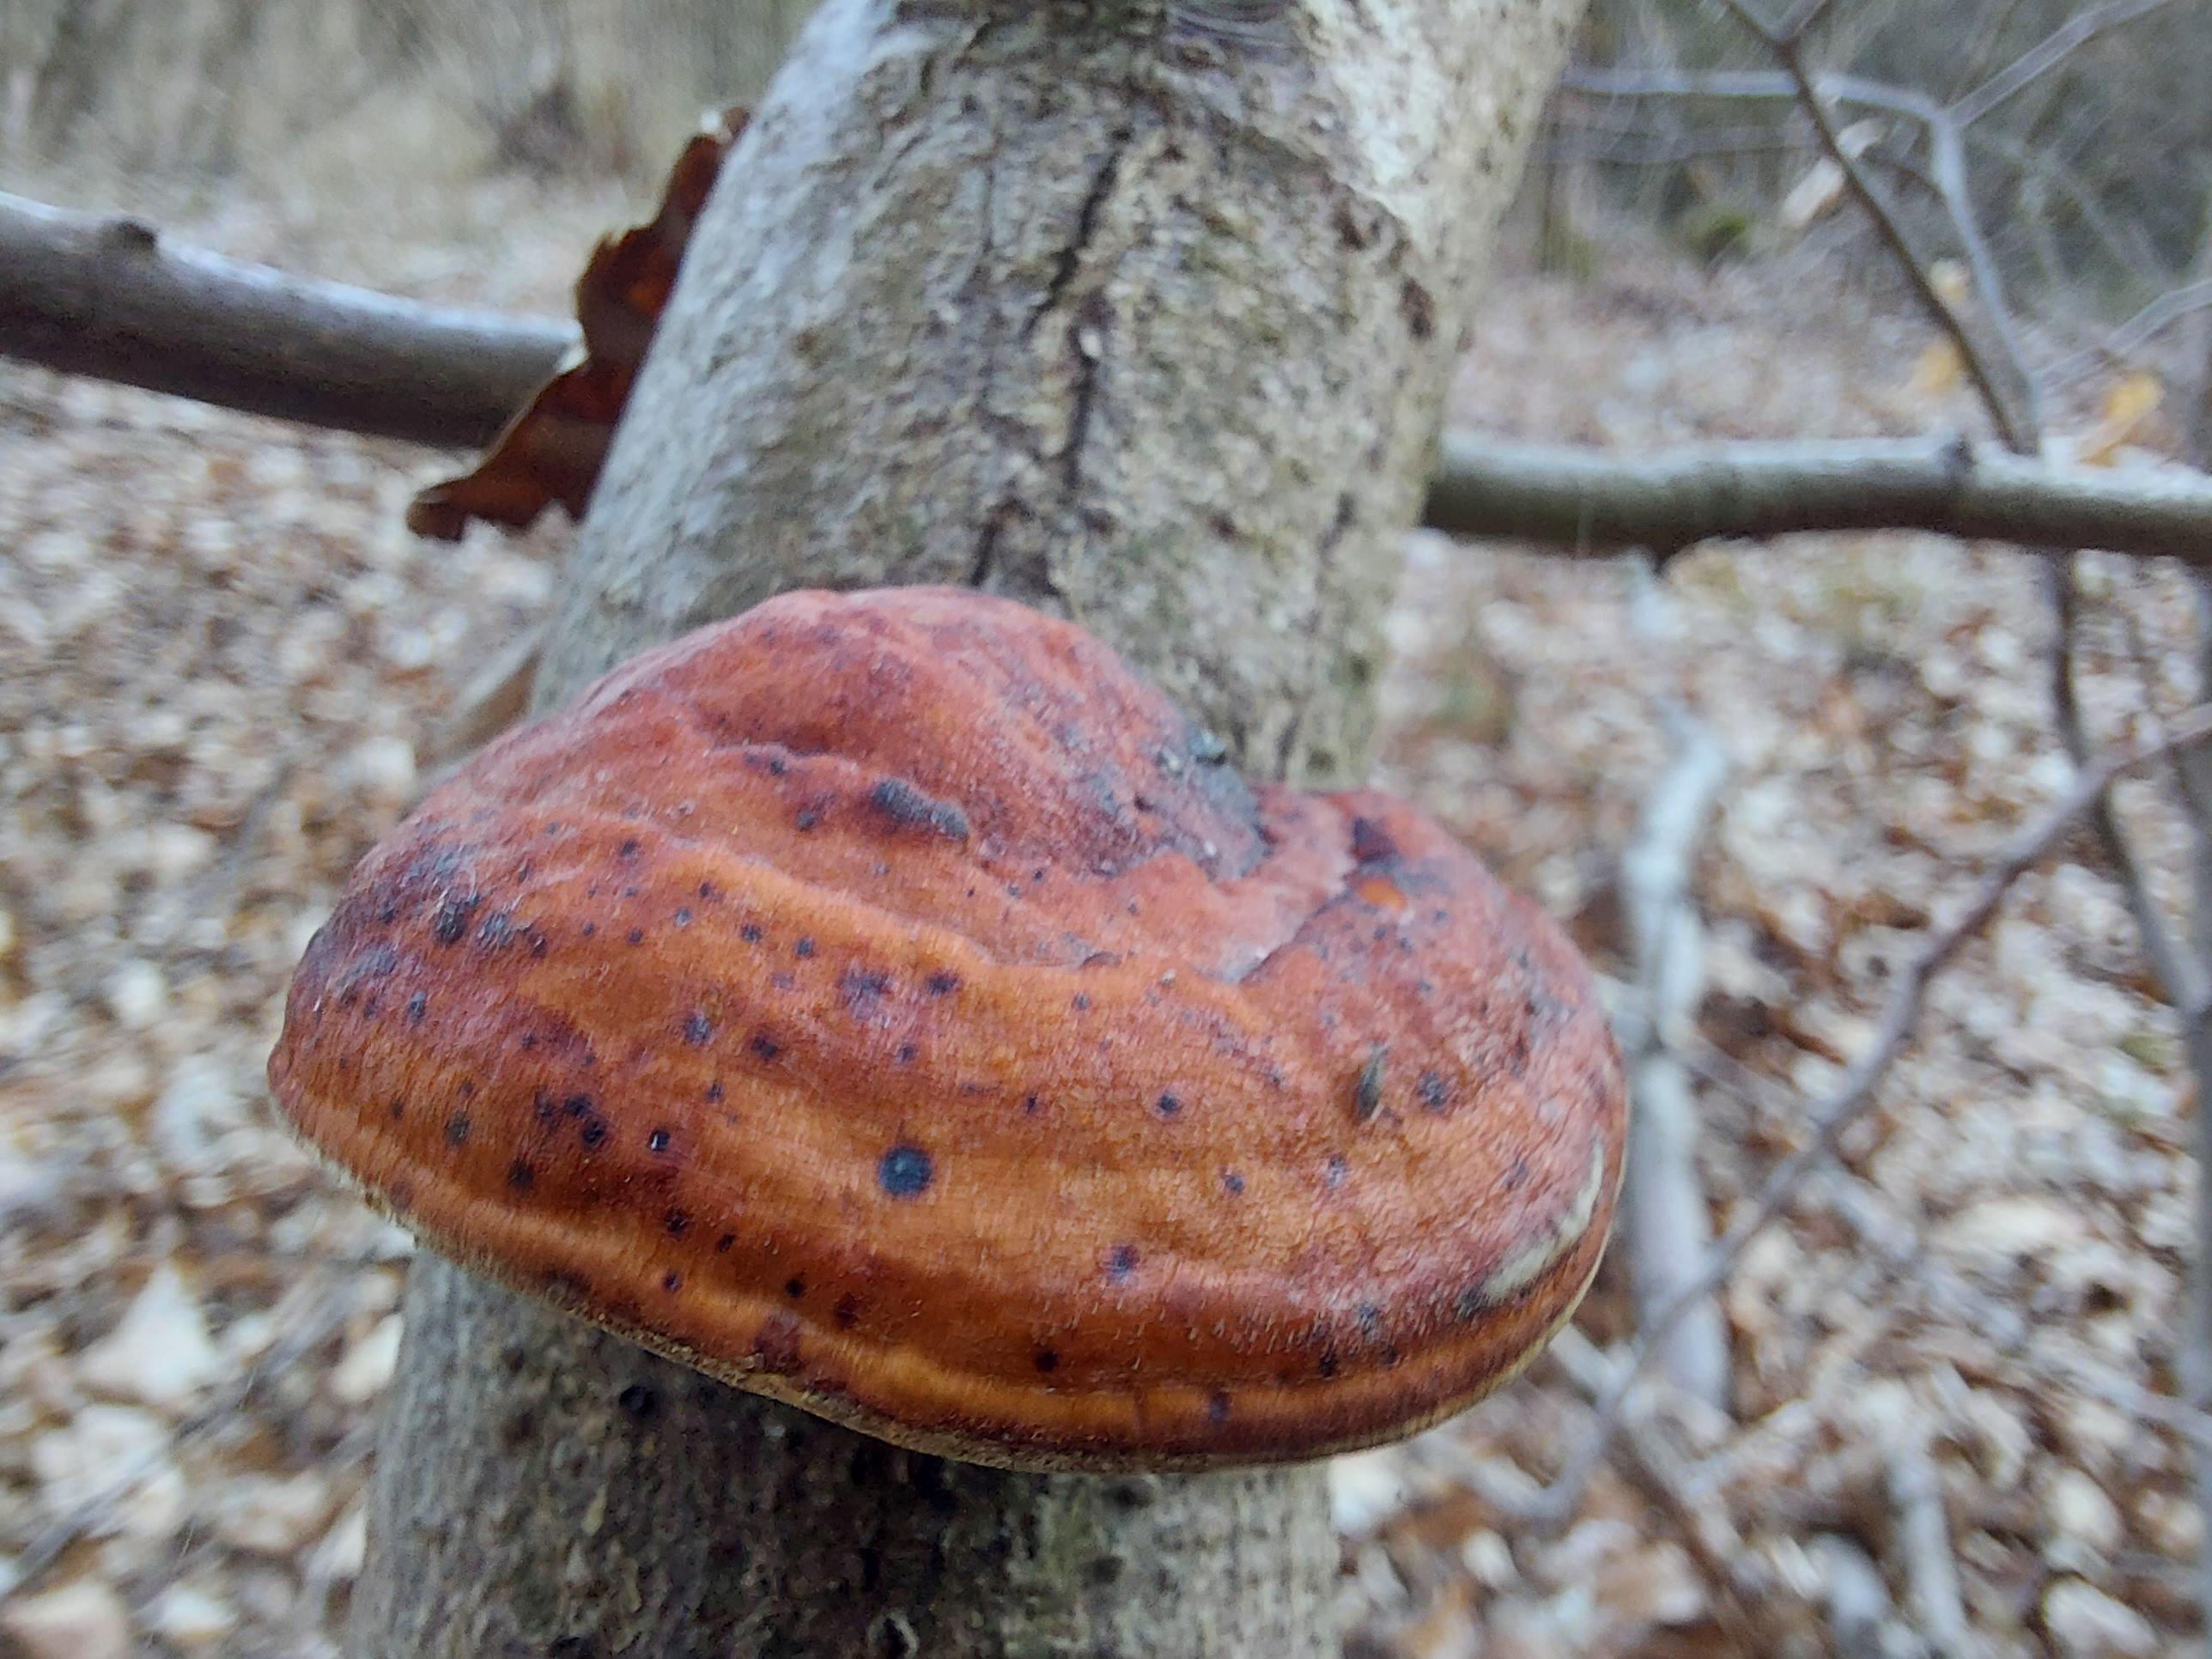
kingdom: Fungi
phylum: Basidiomycota
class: Agaricomycetes
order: Polyporales
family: Fomitopsidaceae
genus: Fomitopsis
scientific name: Fomitopsis pinicola
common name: randbæltet hovporesvamp
